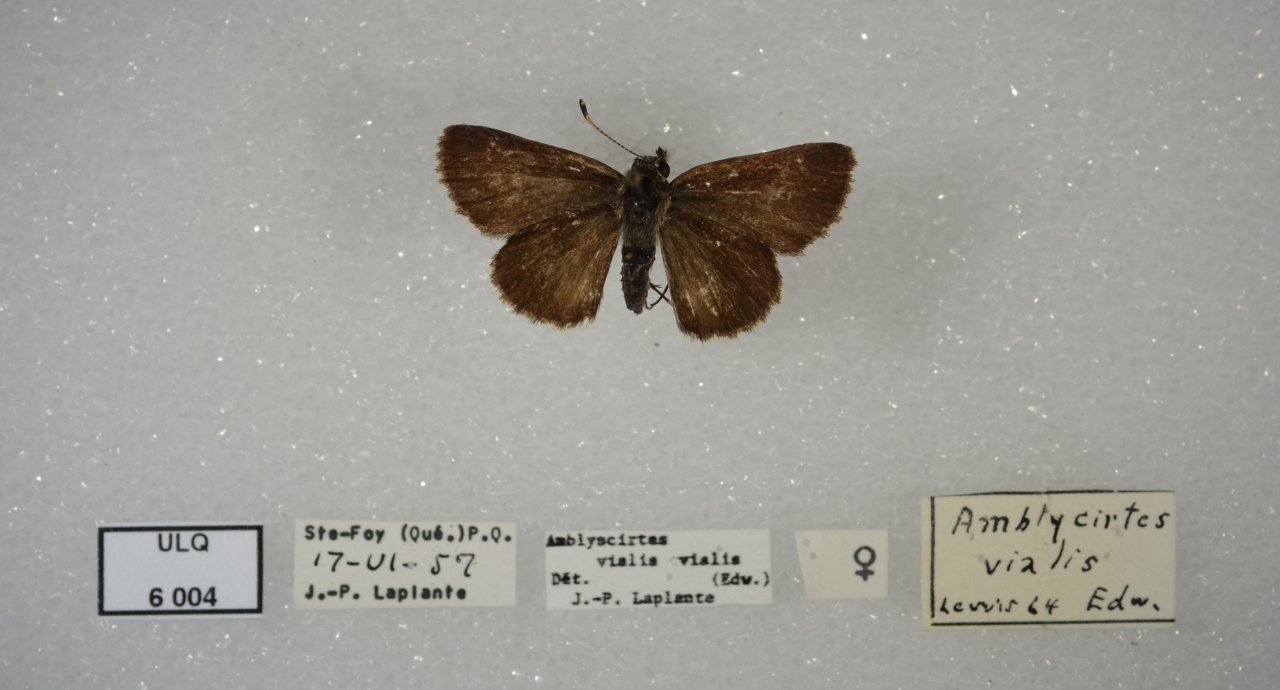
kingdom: Animalia
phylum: Arthropoda
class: Insecta
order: Lepidoptera
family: Hesperiidae
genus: Mastor
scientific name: Mastor hegon
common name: Pepper and Salt Skipper
